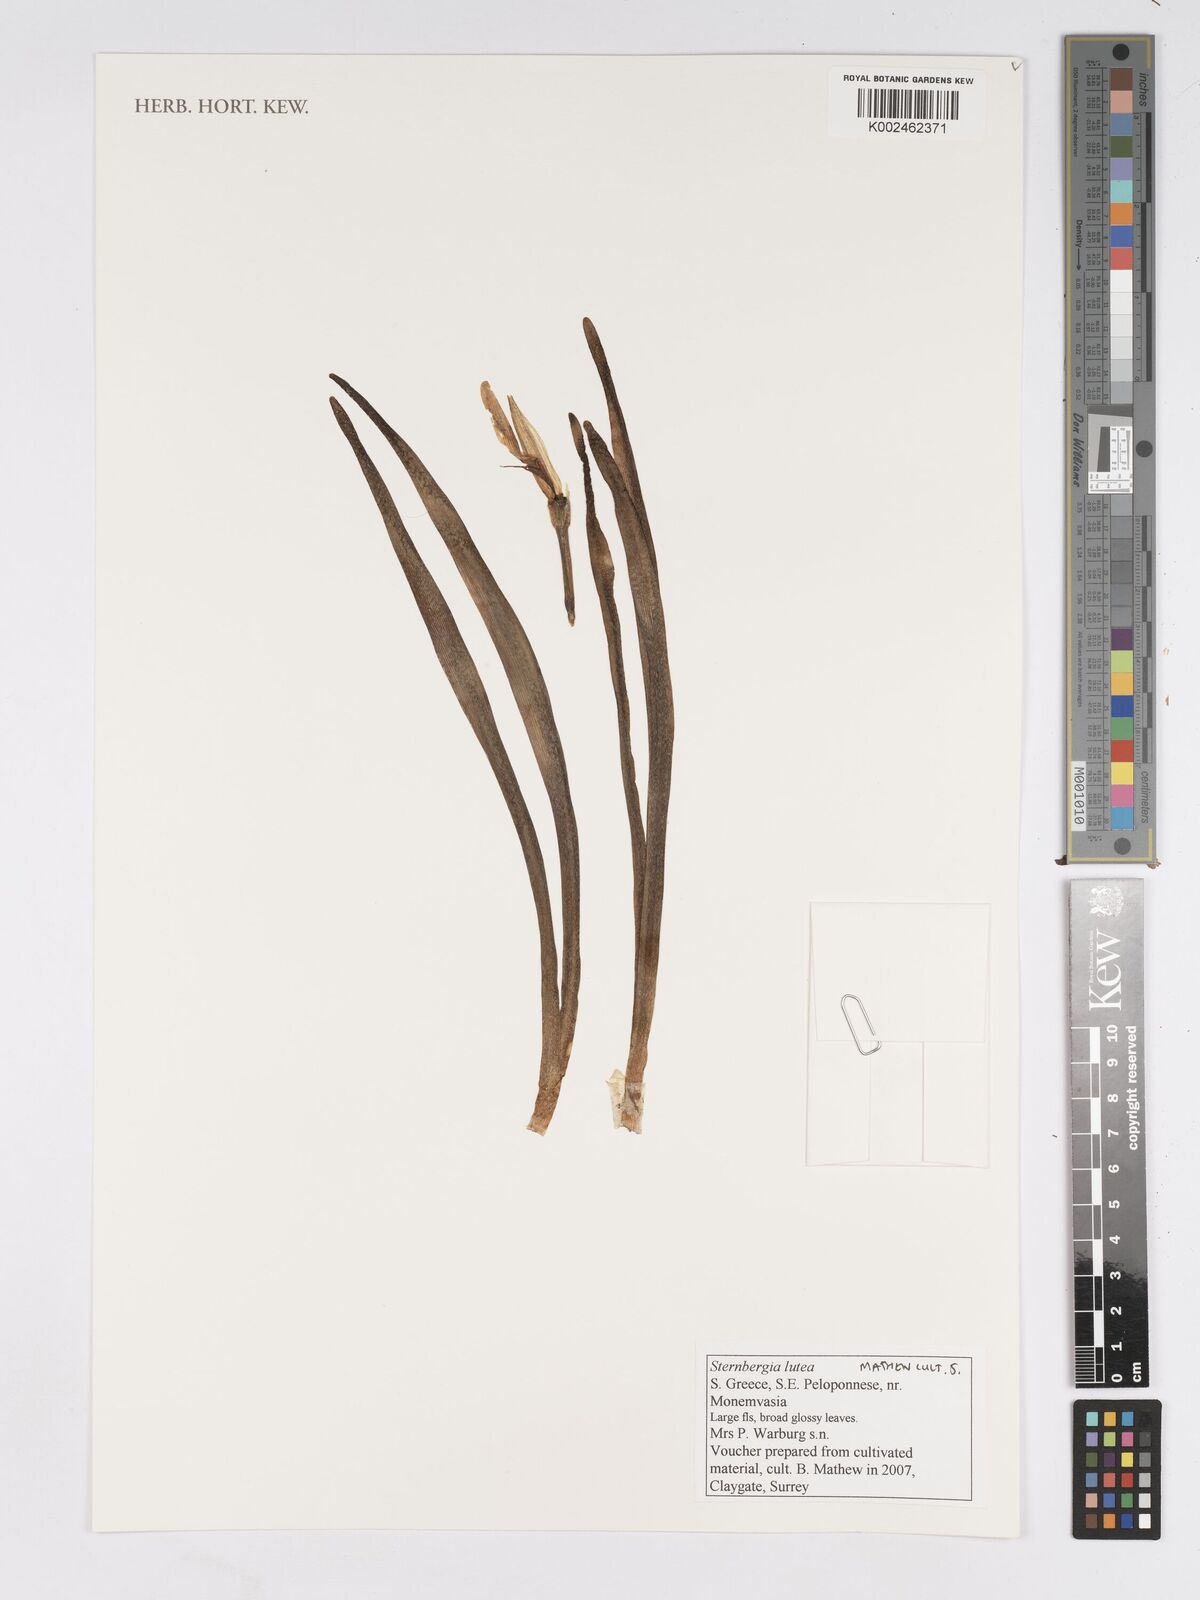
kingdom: Plantae
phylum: Tracheophyta
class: Liliopsida
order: Asparagales
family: Amaryllidaceae
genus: Sternbergia
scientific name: Sternbergia lutea
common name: Winter daffodil
